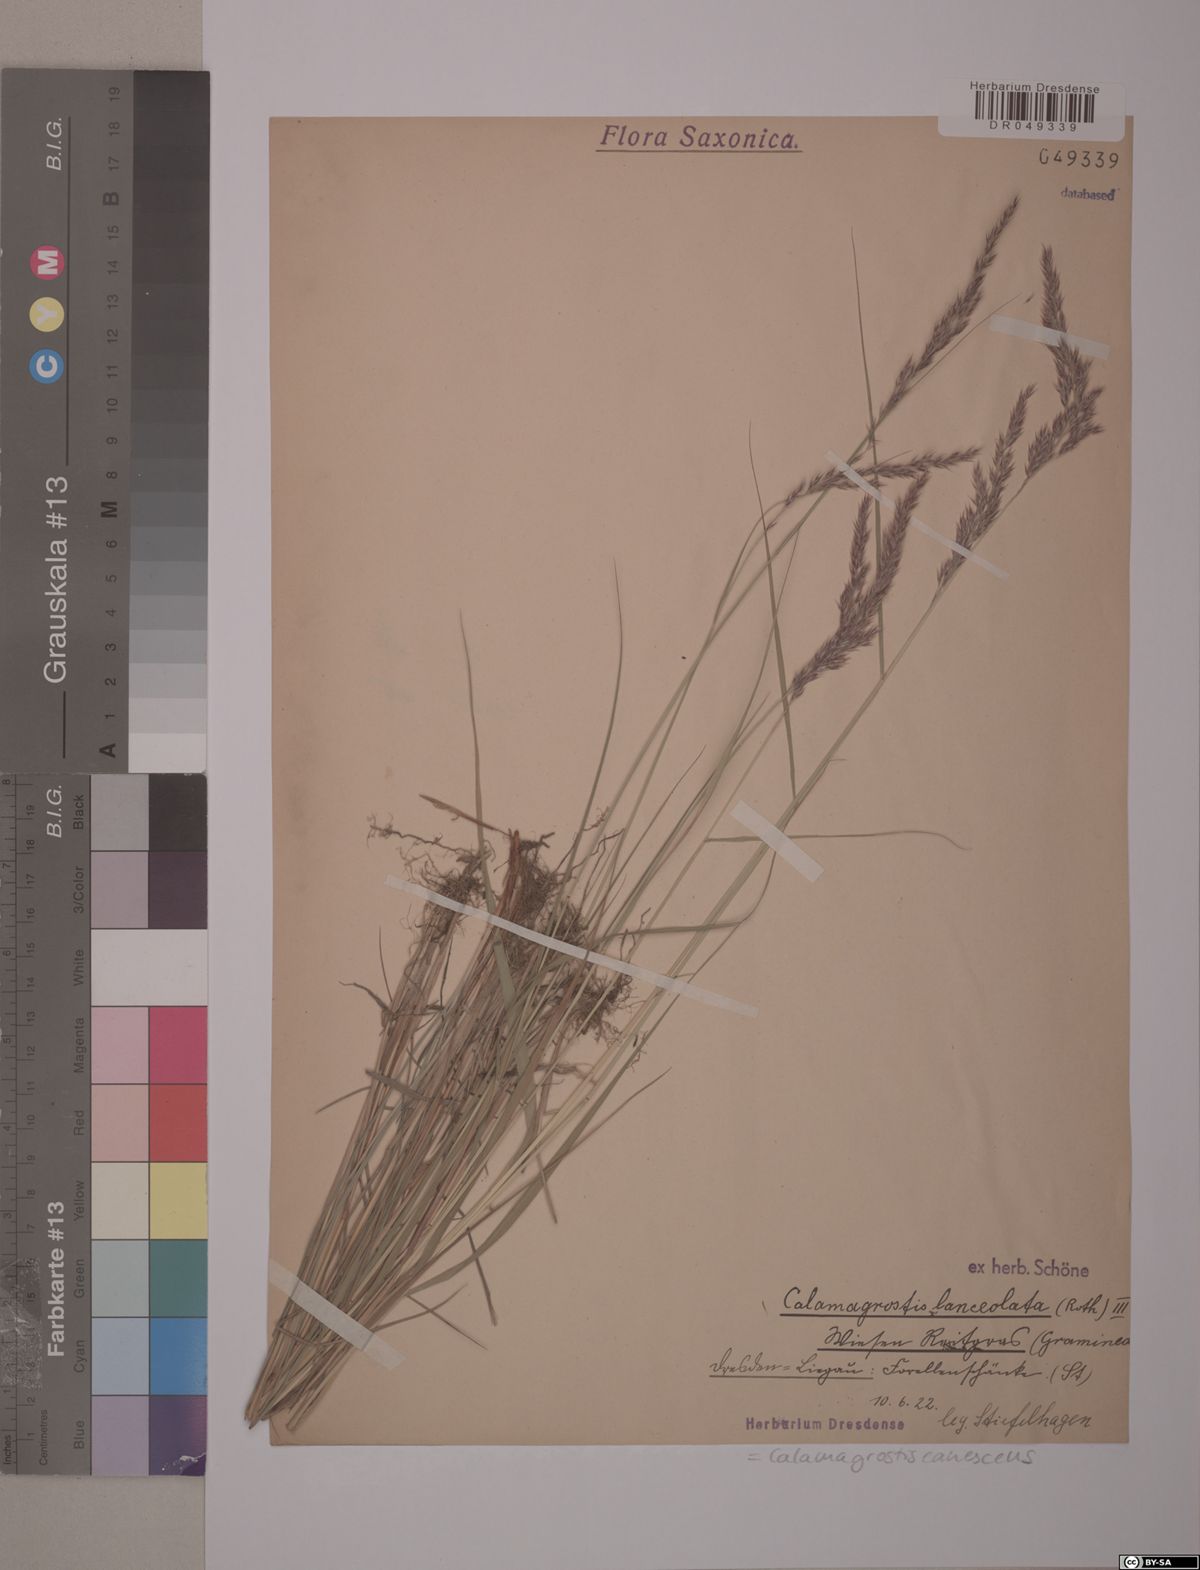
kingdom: Plantae
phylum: Tracheophyta
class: Liliopsida
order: Poales
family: Poaceae
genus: Calamagrostis
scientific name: Calamagrostis canescens
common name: Purple small-reed
